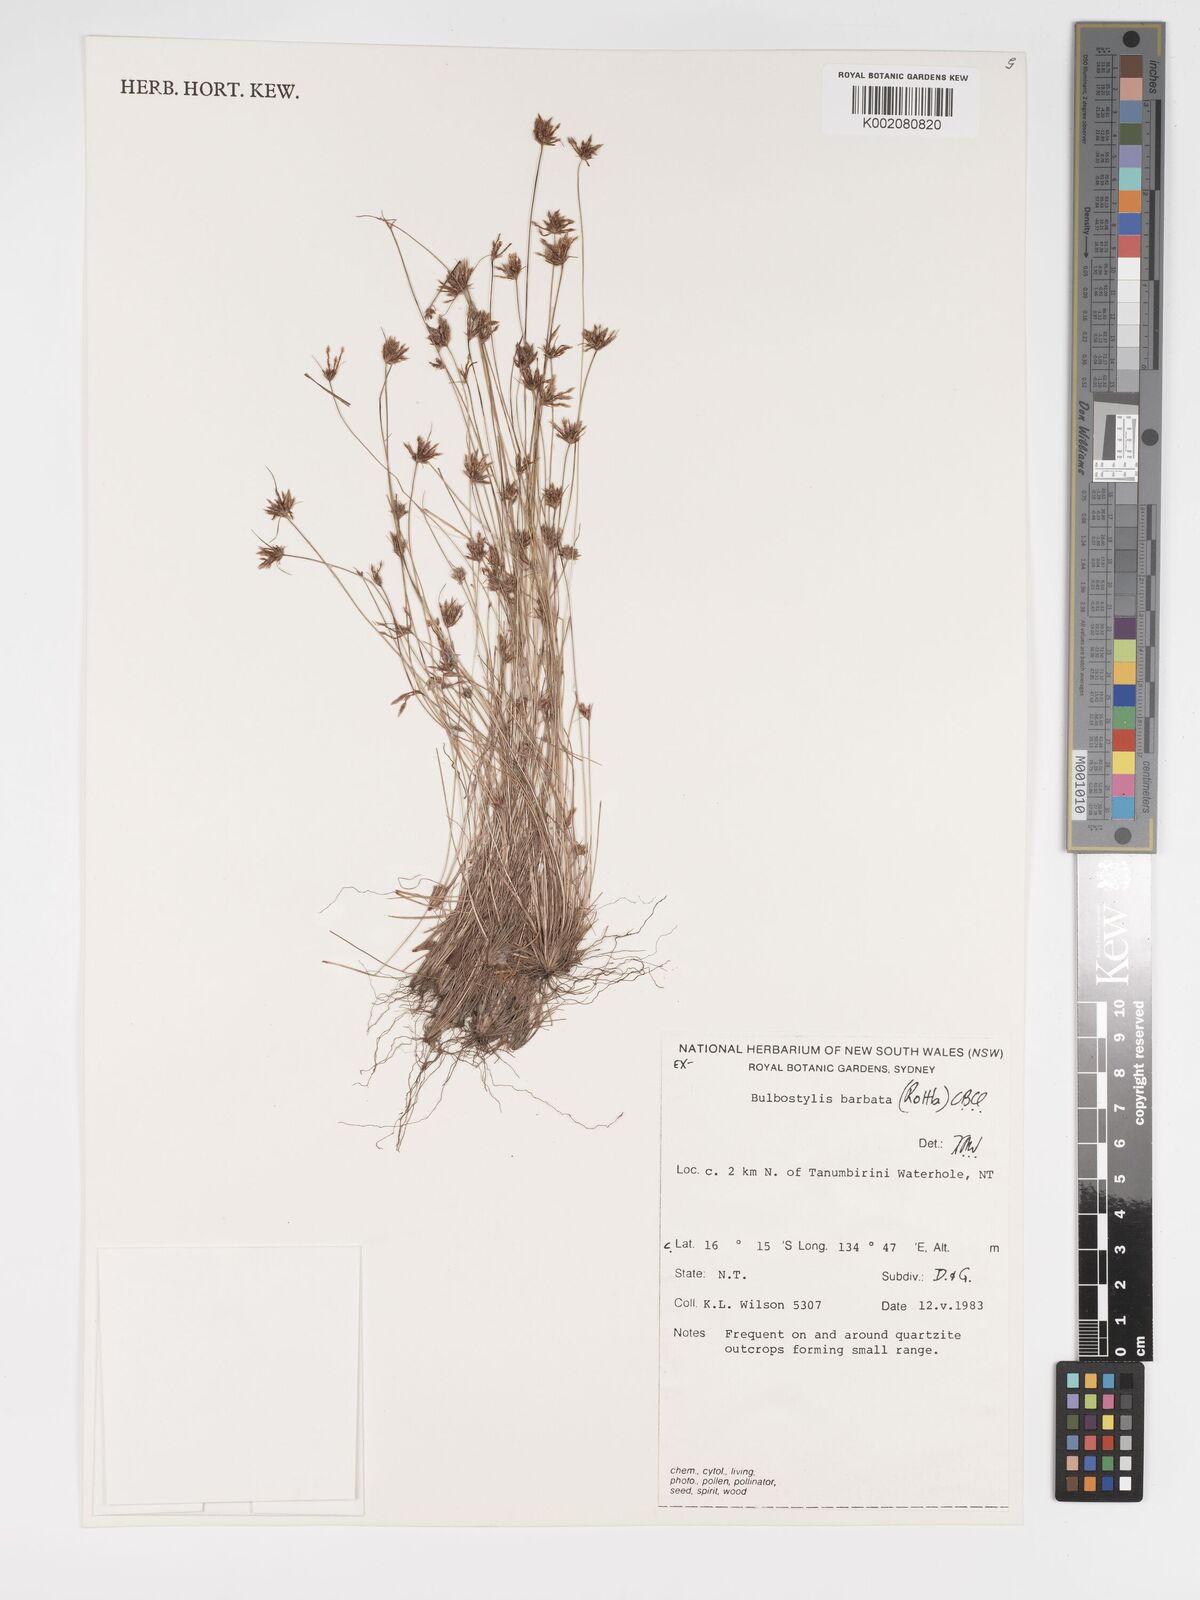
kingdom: Plantae
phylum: Tracheophyta
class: Liliopsida
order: Poales
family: Cyperaceae
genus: Bulbostylis
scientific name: Bulbostylis barbata
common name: Watergrass
